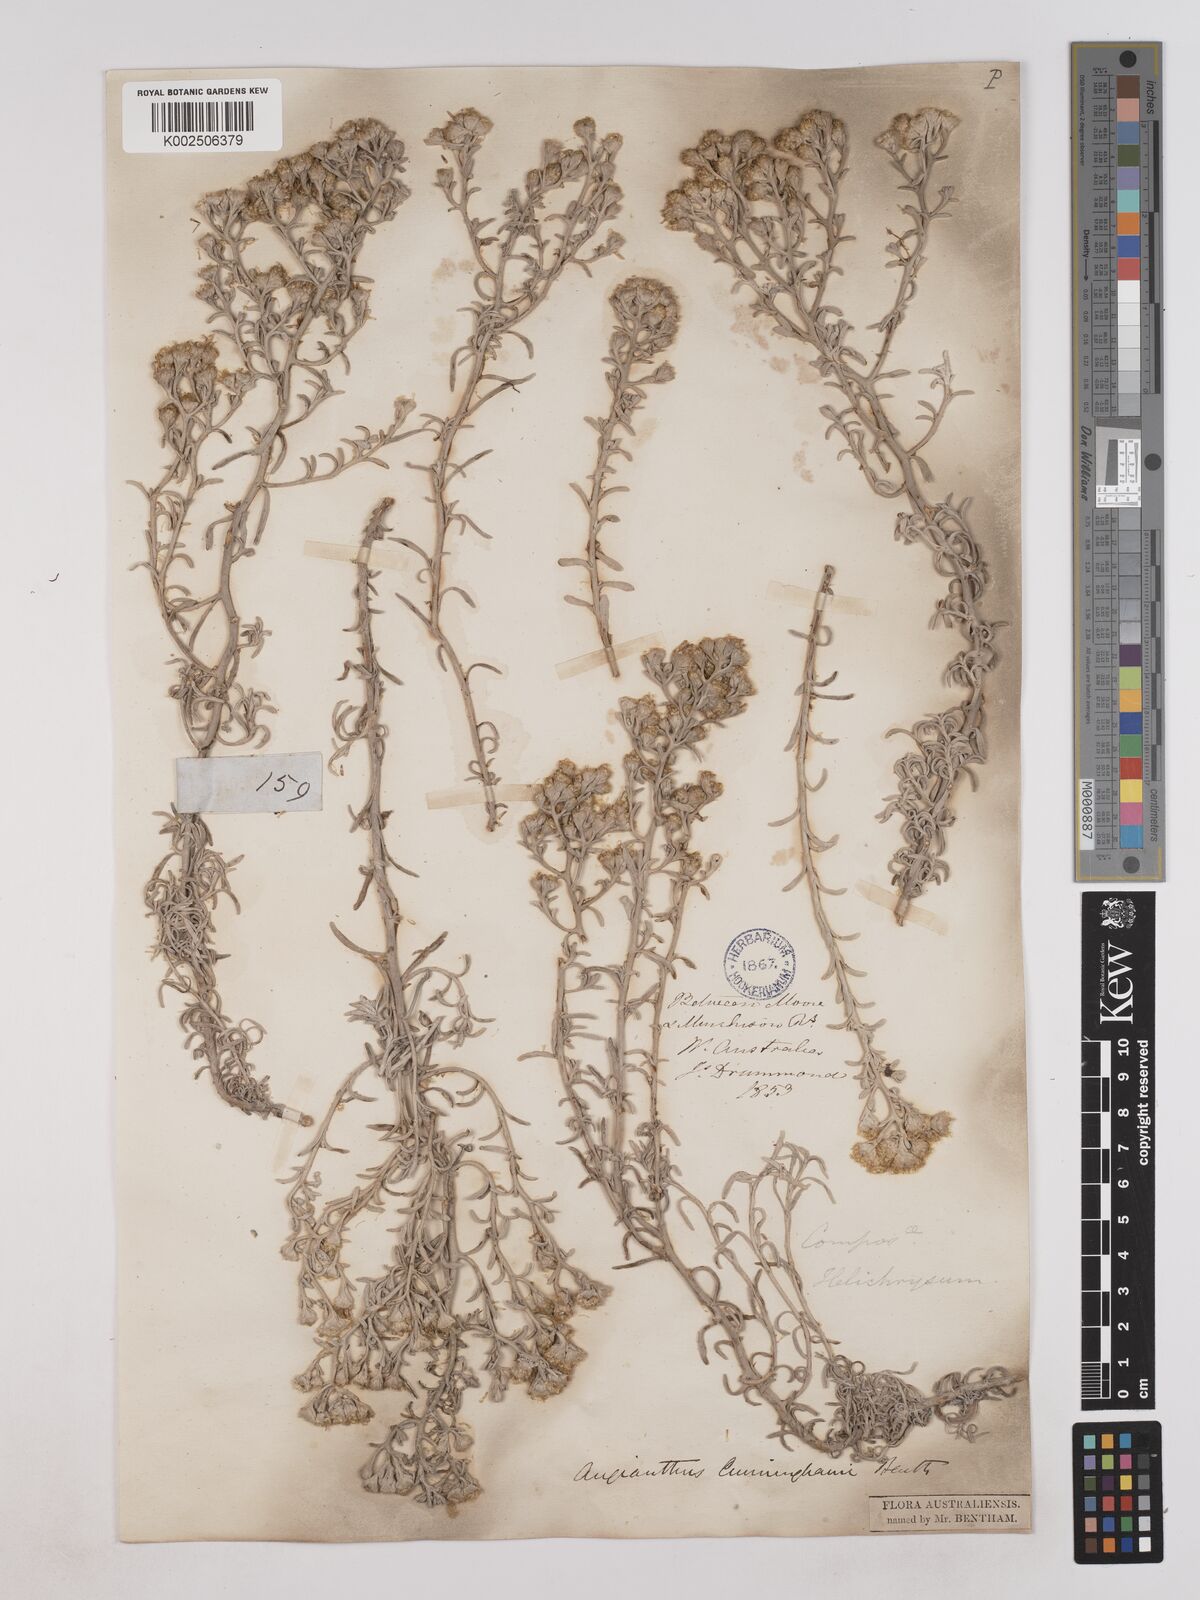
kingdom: Plantae
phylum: Tracheophyta
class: Magnoliopsida
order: Asterales
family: Asteraceae
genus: Angianthus
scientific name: Angianthus cunninghamii
